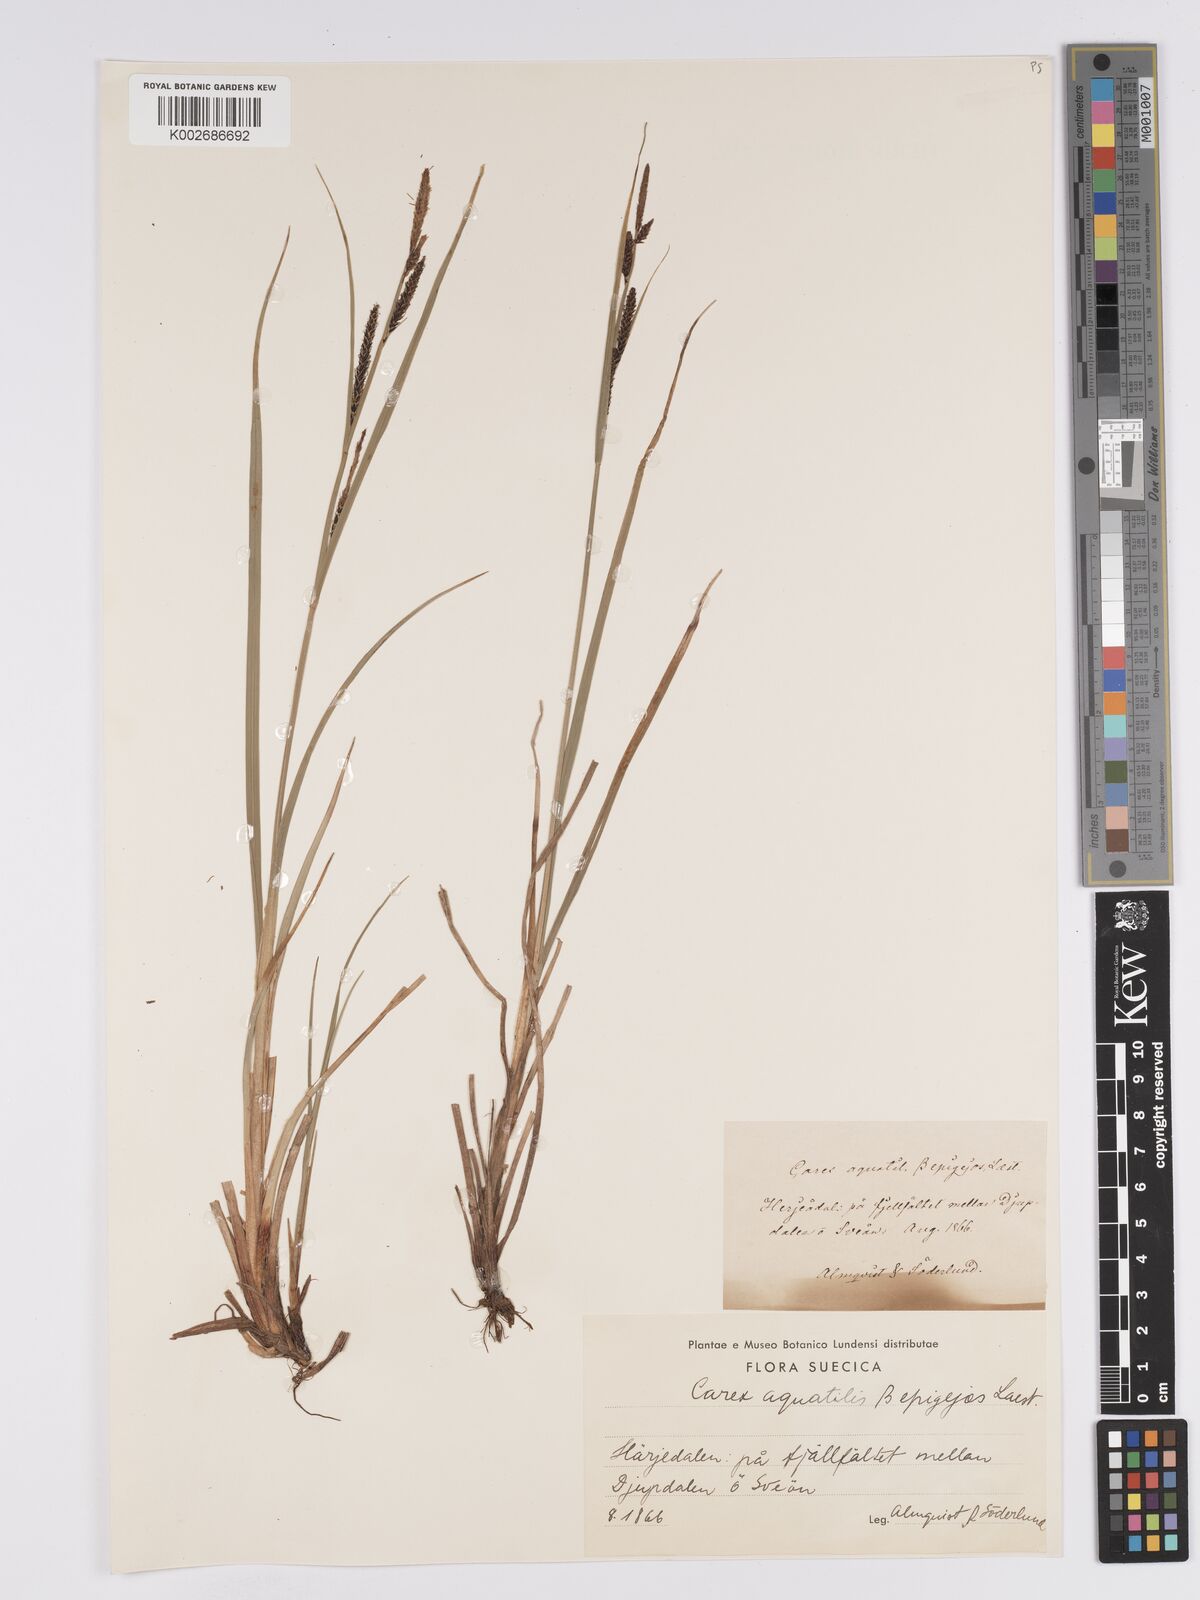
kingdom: Plantae
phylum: Tracheophyta
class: Liliopsida
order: Poales
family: Cyperaceae
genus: Carex
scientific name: Carex aquatilis
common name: Water sedge
